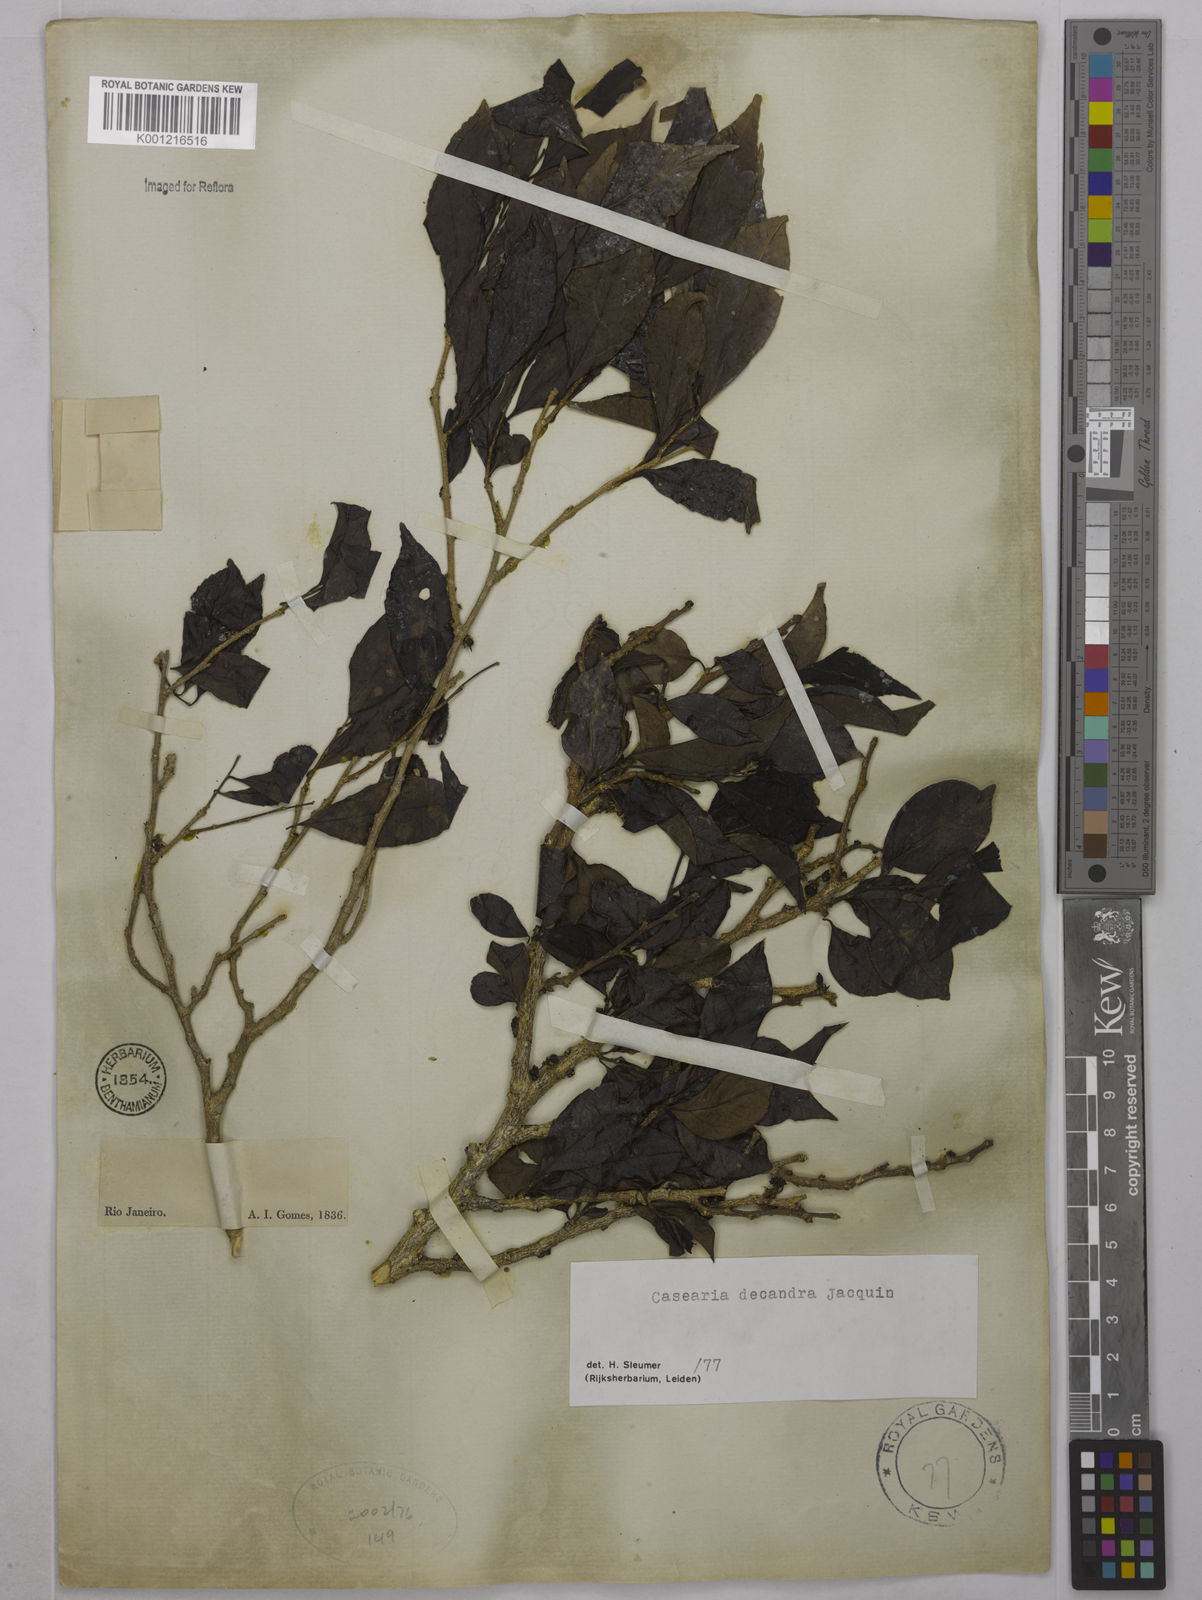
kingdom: Plantae
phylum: Tracheophyta
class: Magnoliopsida
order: Malpighiales
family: Salicaceae
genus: Casearia
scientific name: Casearia decandra
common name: Crack open
